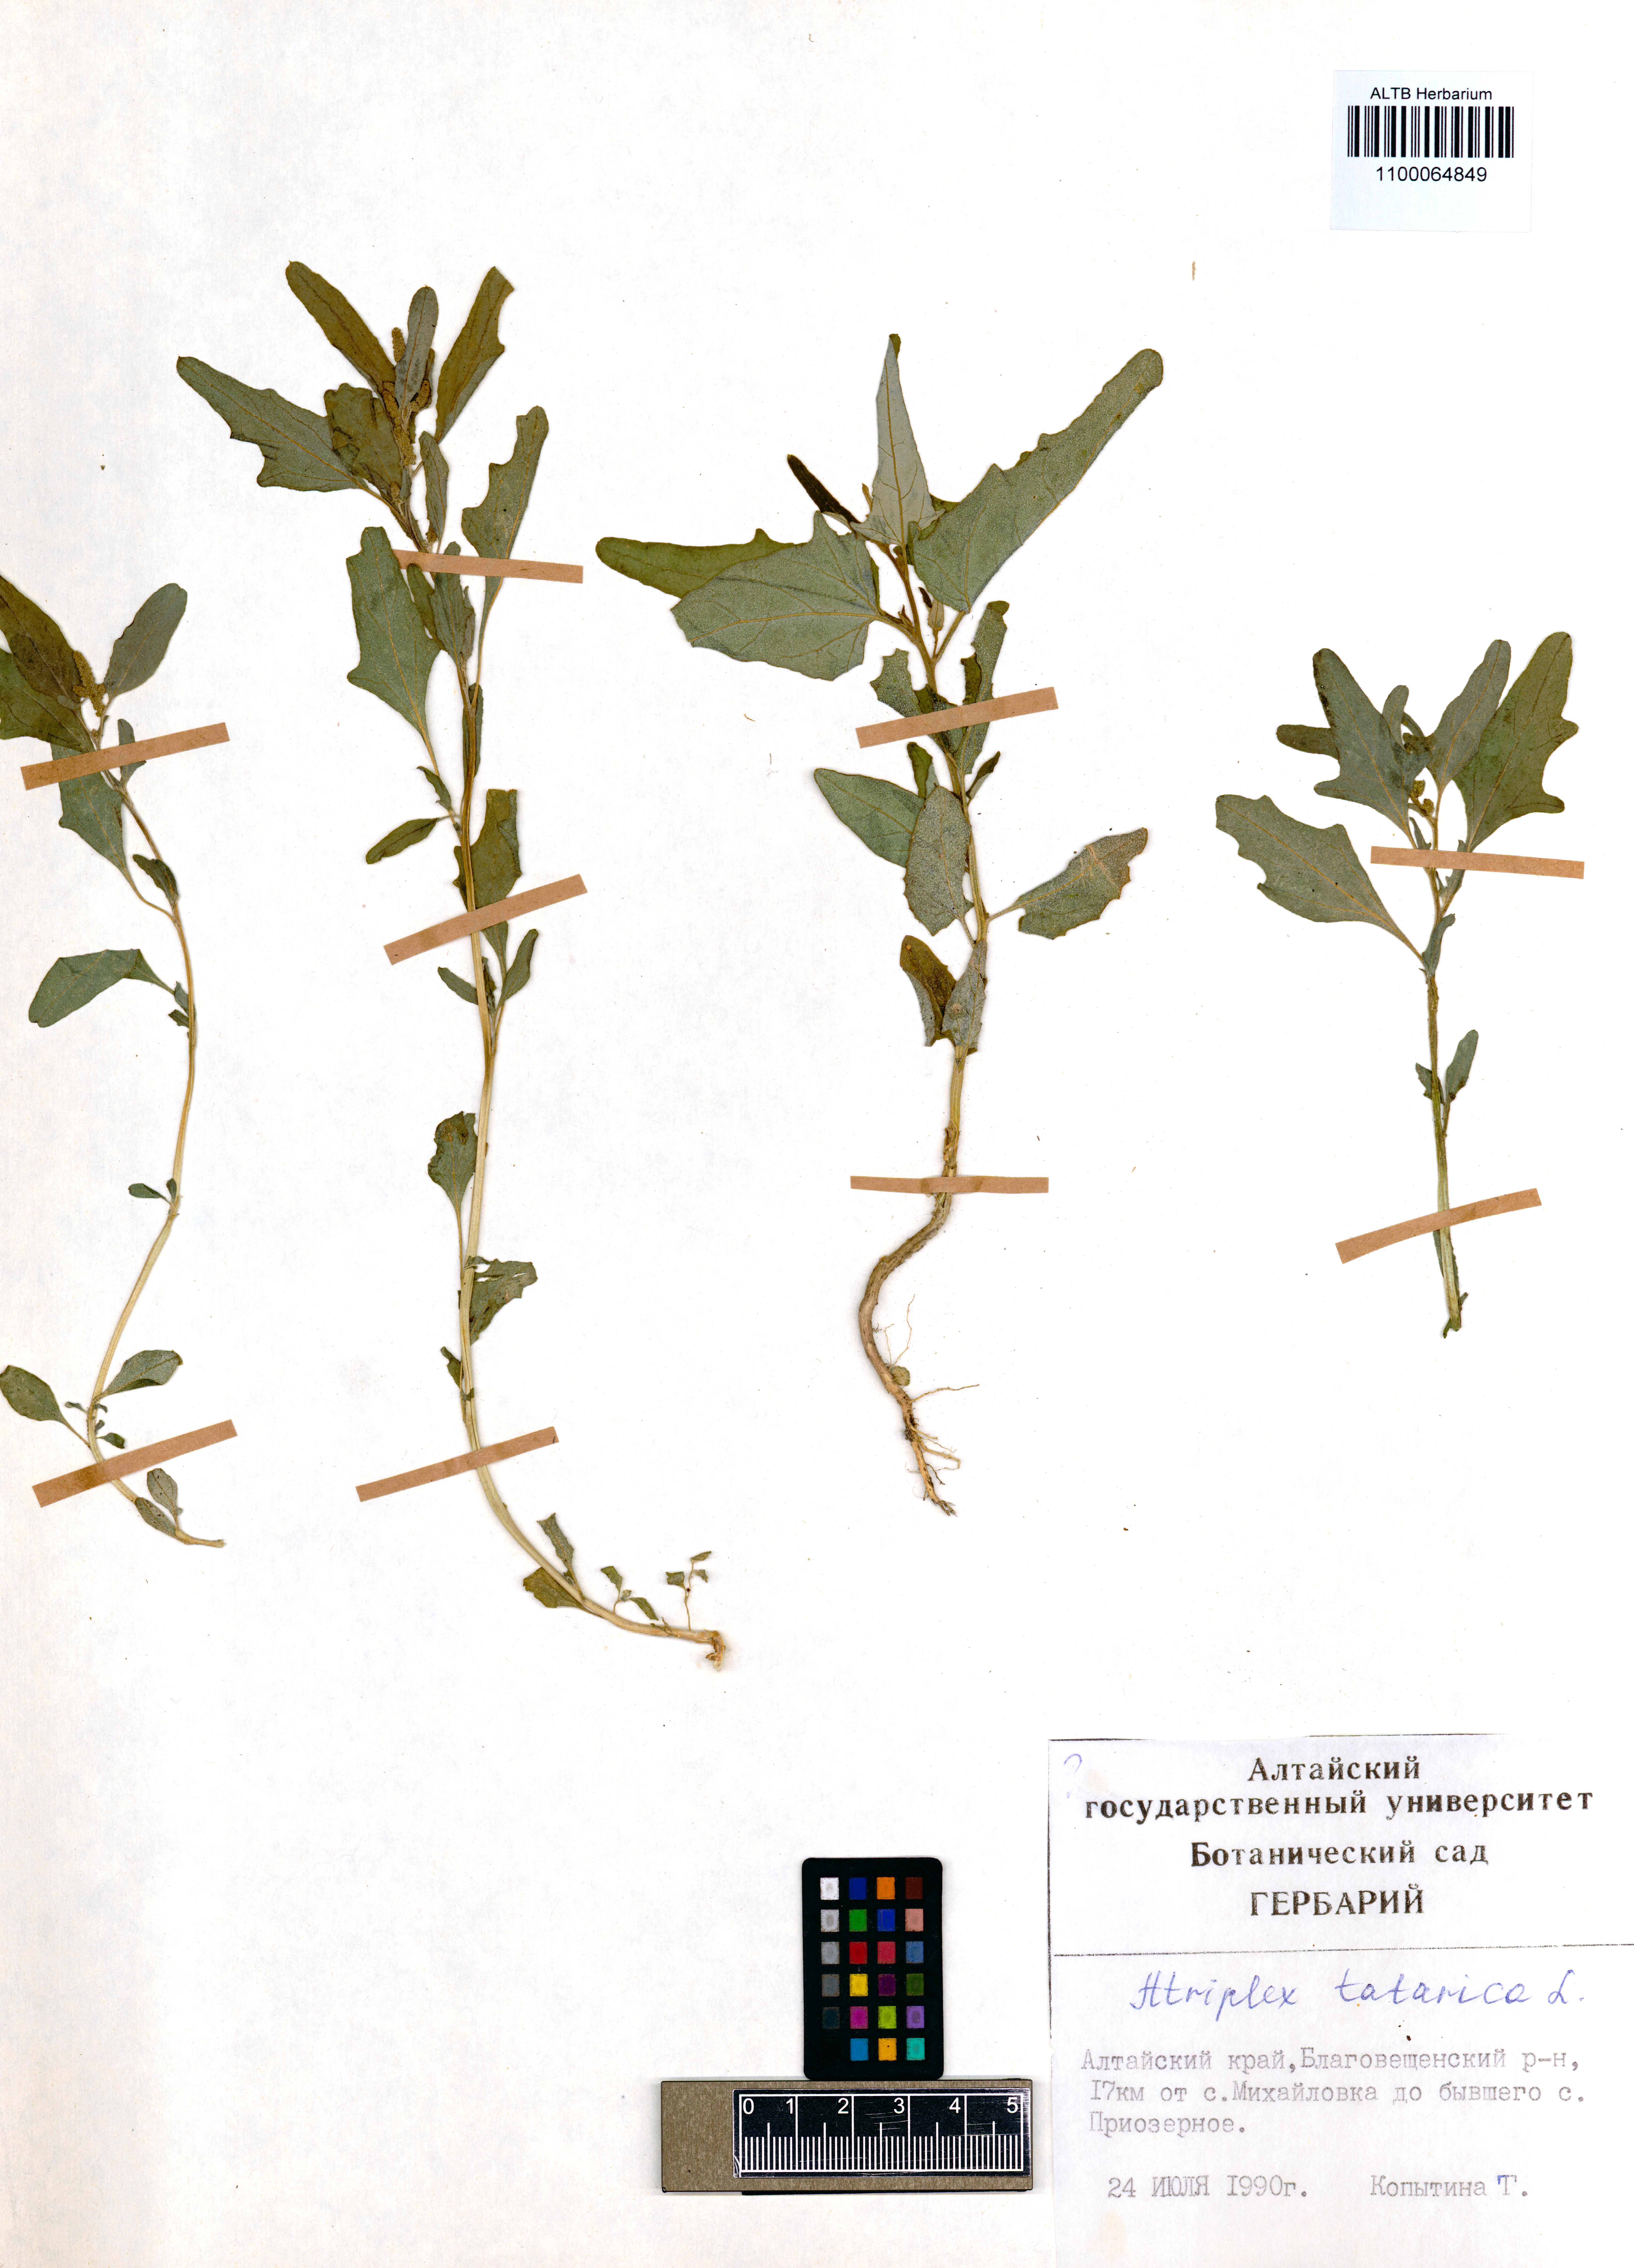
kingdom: Plantae
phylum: Tracheophyta
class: Magnoliopsida
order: Caryophyllales
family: Amaranthaceae
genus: Atriplex
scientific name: Atriplex tatarica
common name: Tatarian orache
